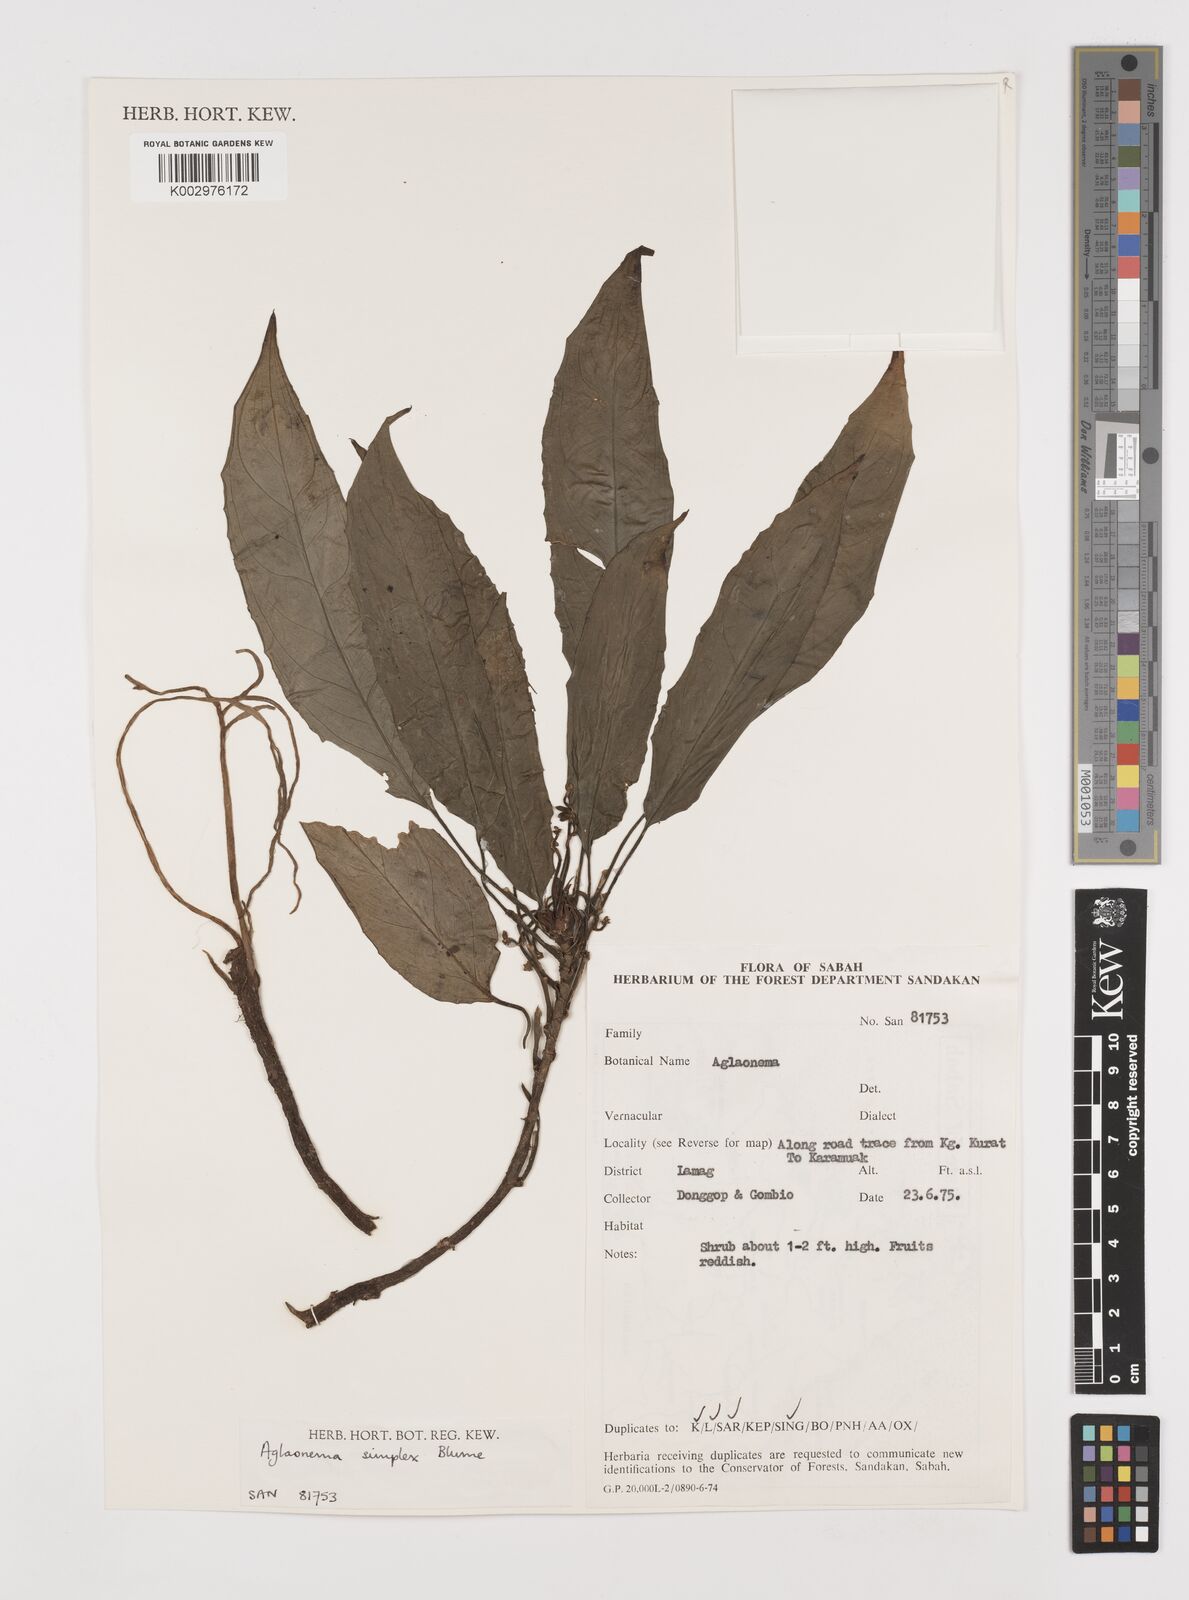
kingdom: Plantae
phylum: Tracheophyta
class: Liliopsida
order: Alismatales
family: Araceae
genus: Aglaonema
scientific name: Aglaonema simplex
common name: Malayan-sword
